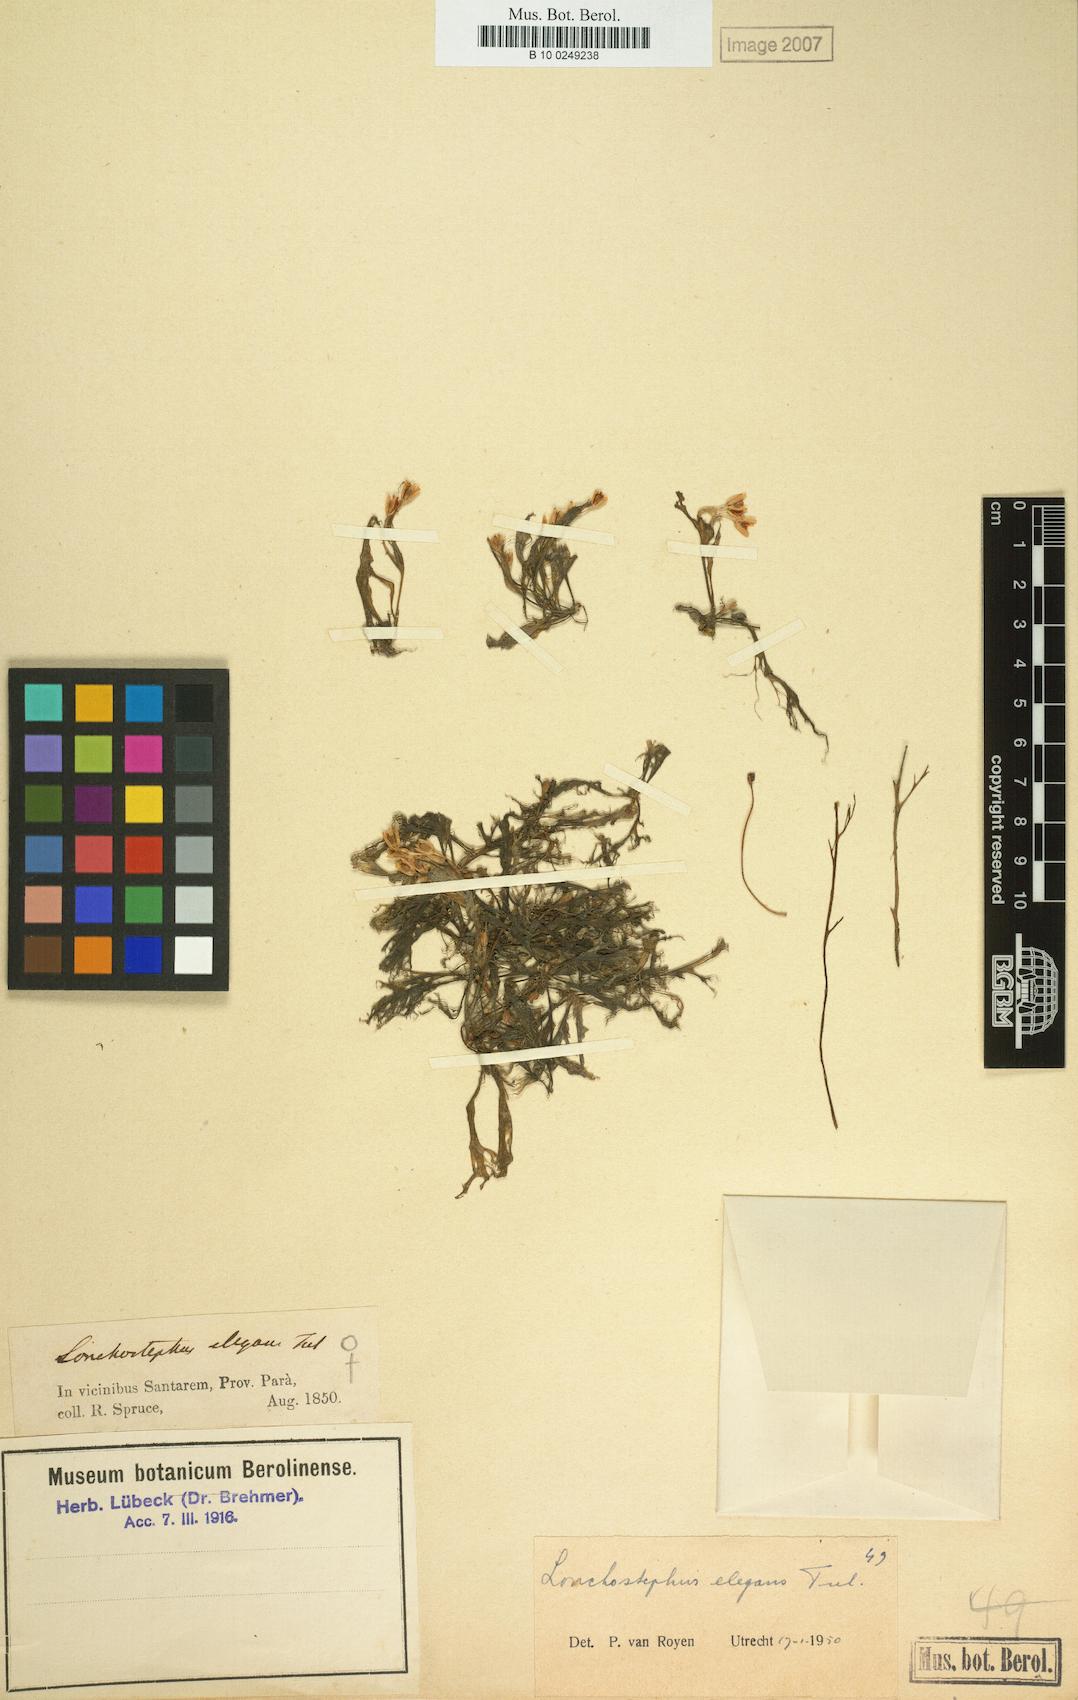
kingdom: Plantae
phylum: Tracheophyta
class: Magnoliopsida
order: Malpighiales
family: Podostemaceae
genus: Lonchostephus
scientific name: Lonchostephus elegans
